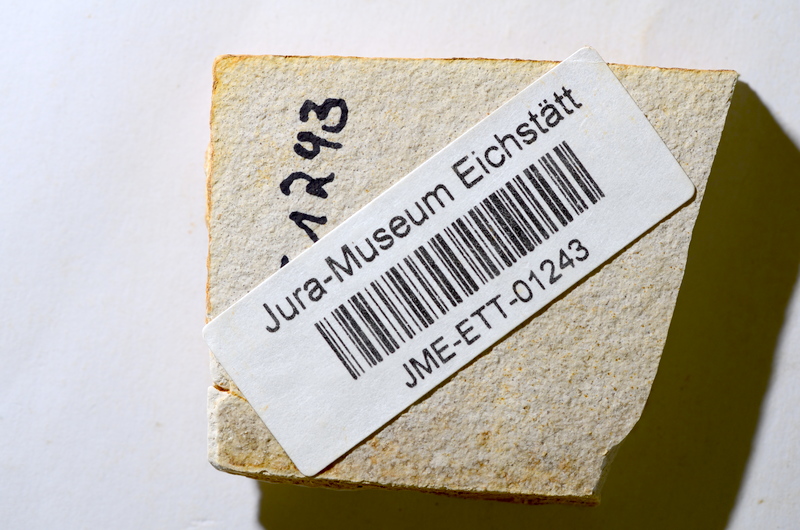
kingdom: Animalia
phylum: Chordata
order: Salmoniformes
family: Orthogonikleithridae
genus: Orthogonikleithrus
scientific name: Orthogonikleithrus hoelli
